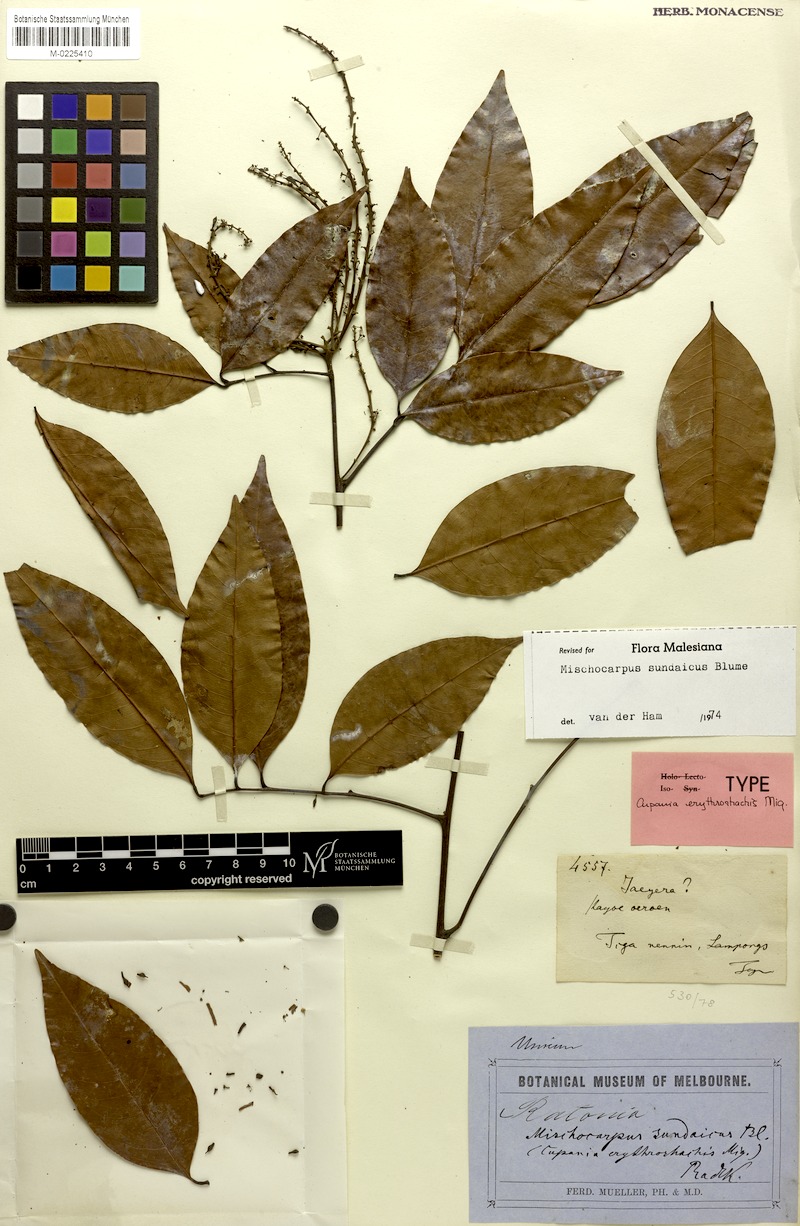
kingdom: Plantae
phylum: Tracheophyta
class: Magnoliopsida
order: Sapindales
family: Sapindaceae
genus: Mischocarpus
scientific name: Mischocarpus sundaicus
